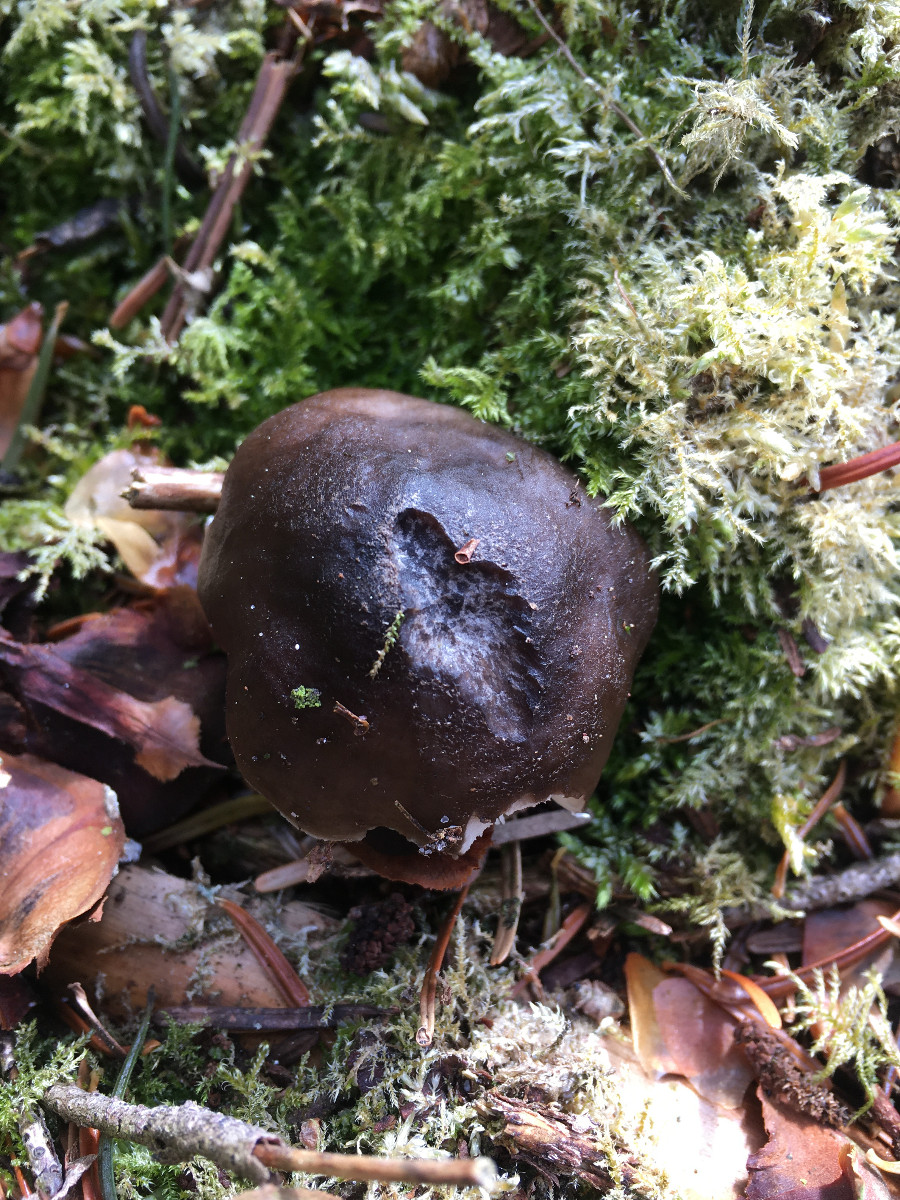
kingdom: Fungi
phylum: Basidiomycota
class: Agaricomycetes
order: Agaricales
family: Pluteaceae
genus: Pluteus
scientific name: Pluteus
